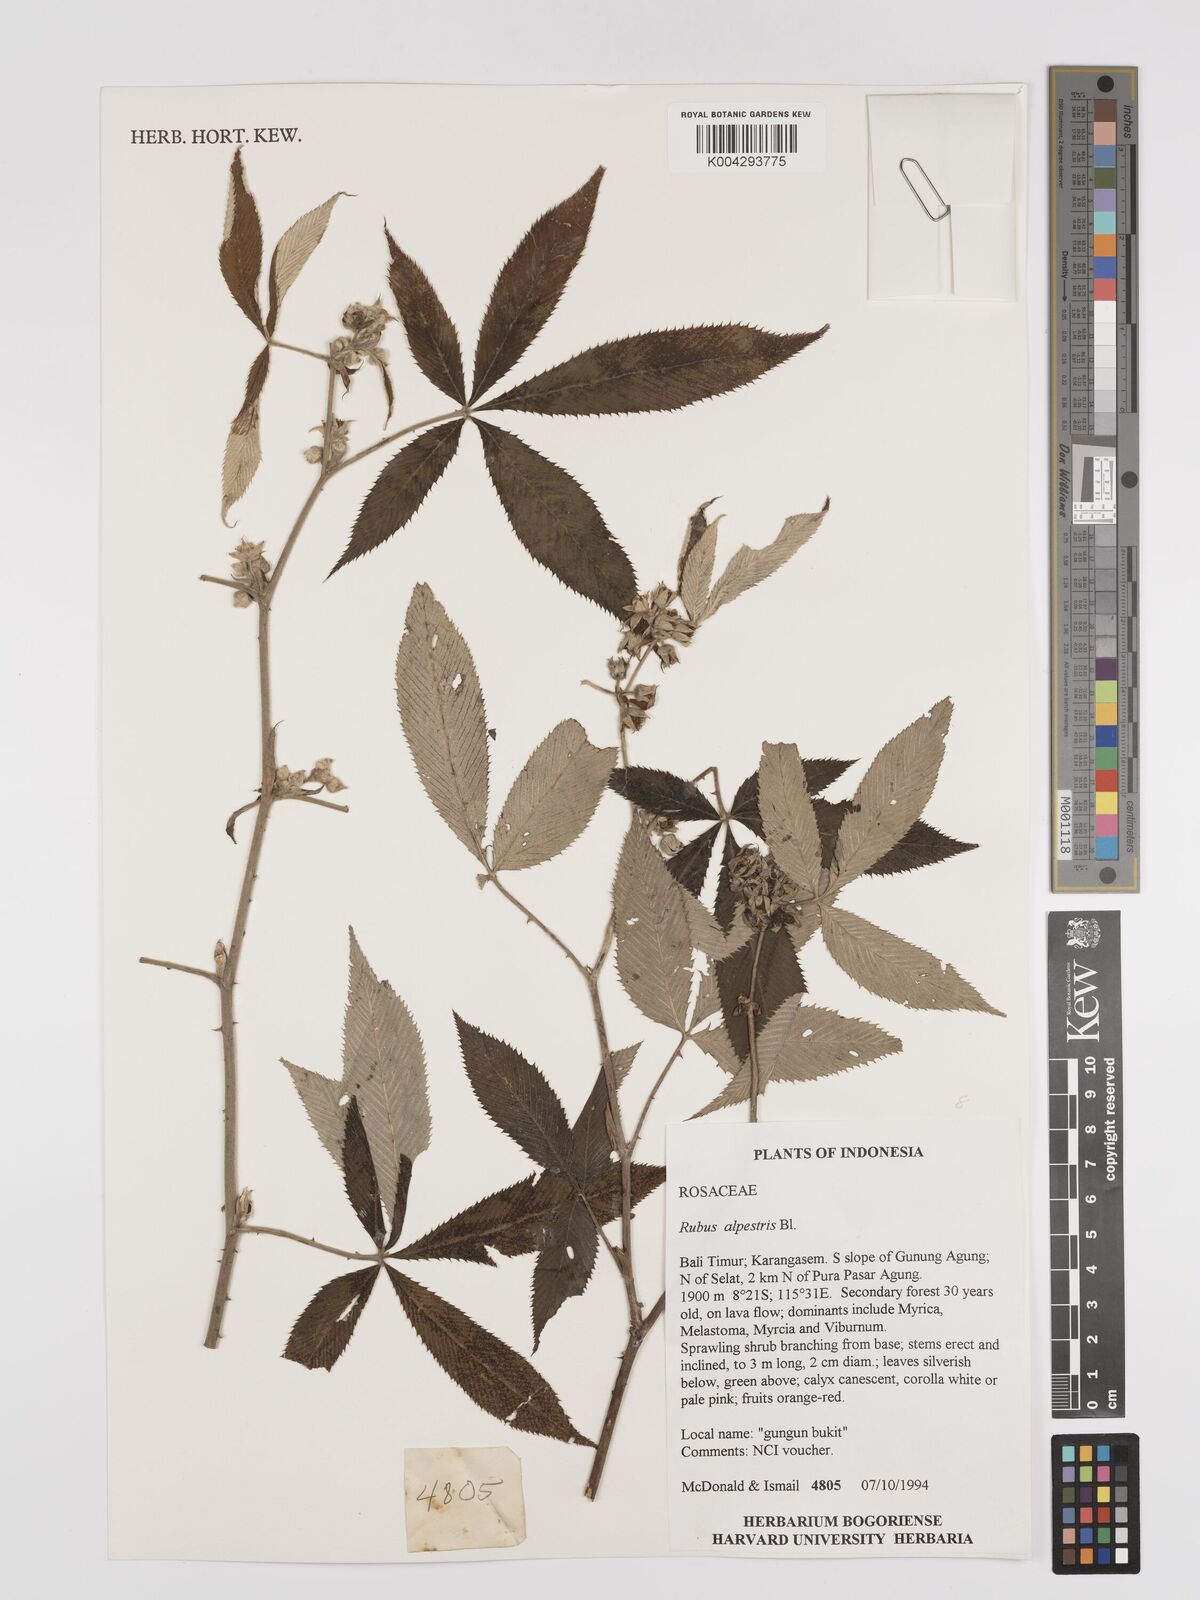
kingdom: Plantae
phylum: Tracheophyta
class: Magnoliopsida
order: Rosales
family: Rosaceae
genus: Rubus
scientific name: Rubus alpestris
